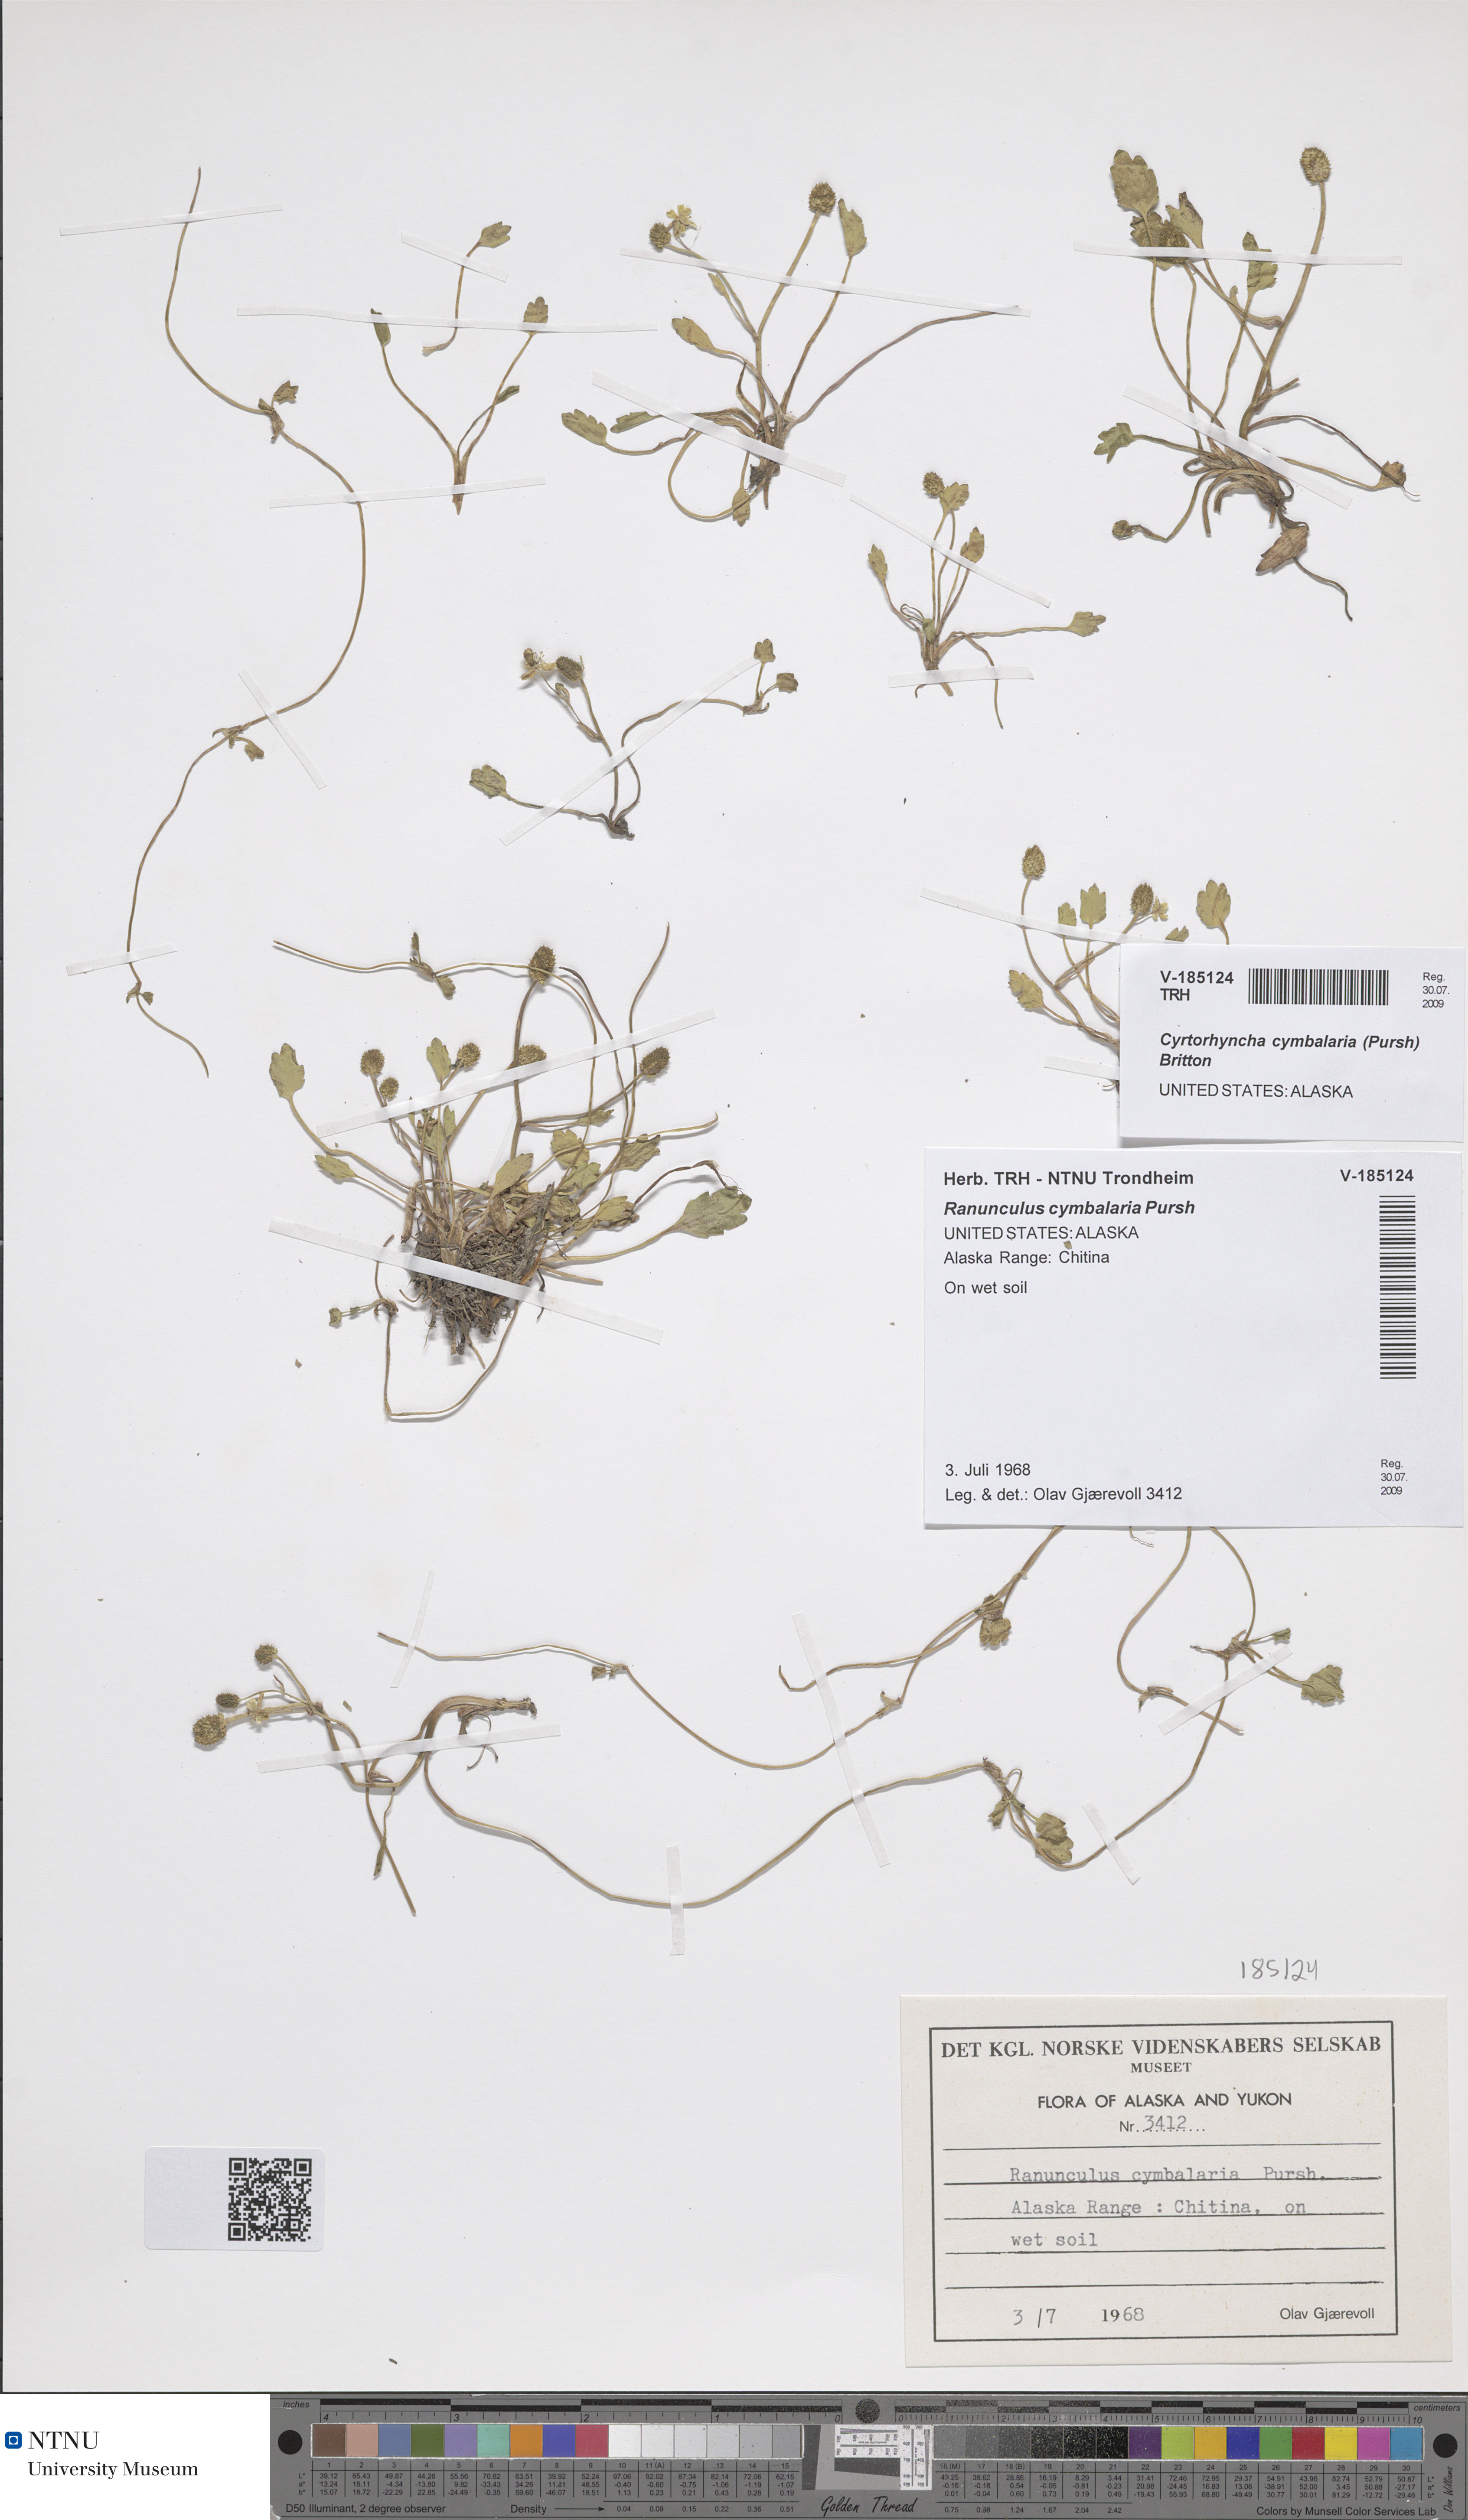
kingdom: Plantae
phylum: Tracheophyta
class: Magnoliopsida
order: Ranunculales
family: Ranunculaceae
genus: Halerpestes
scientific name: Halerpestes cymbalaria
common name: Seaside crowfoot
